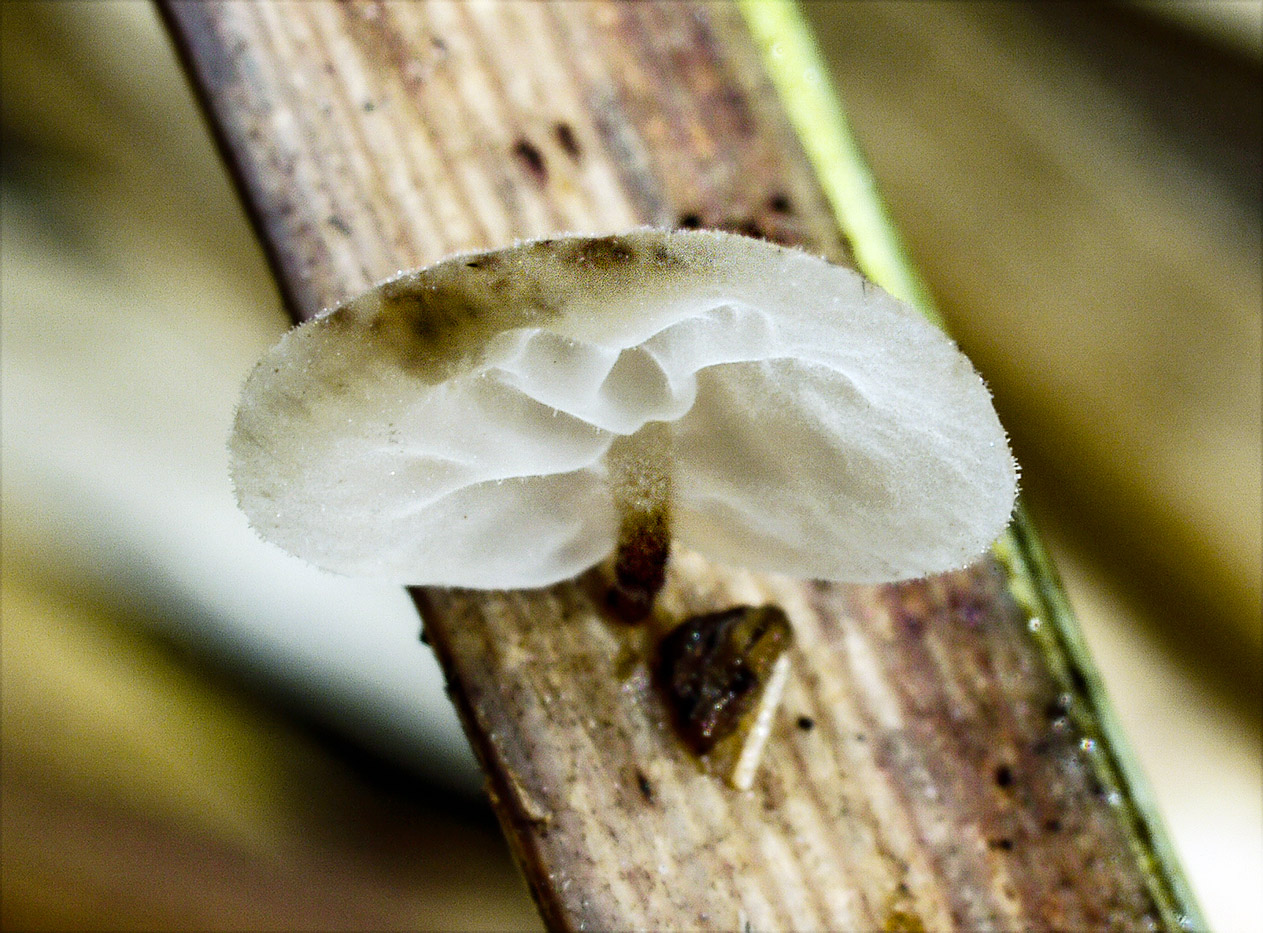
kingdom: Fungi
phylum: Basidiomycota
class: Agaricomycetes
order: Agaricales
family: Physalacriaceae
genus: Gloiocephala
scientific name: Gloiocephala
